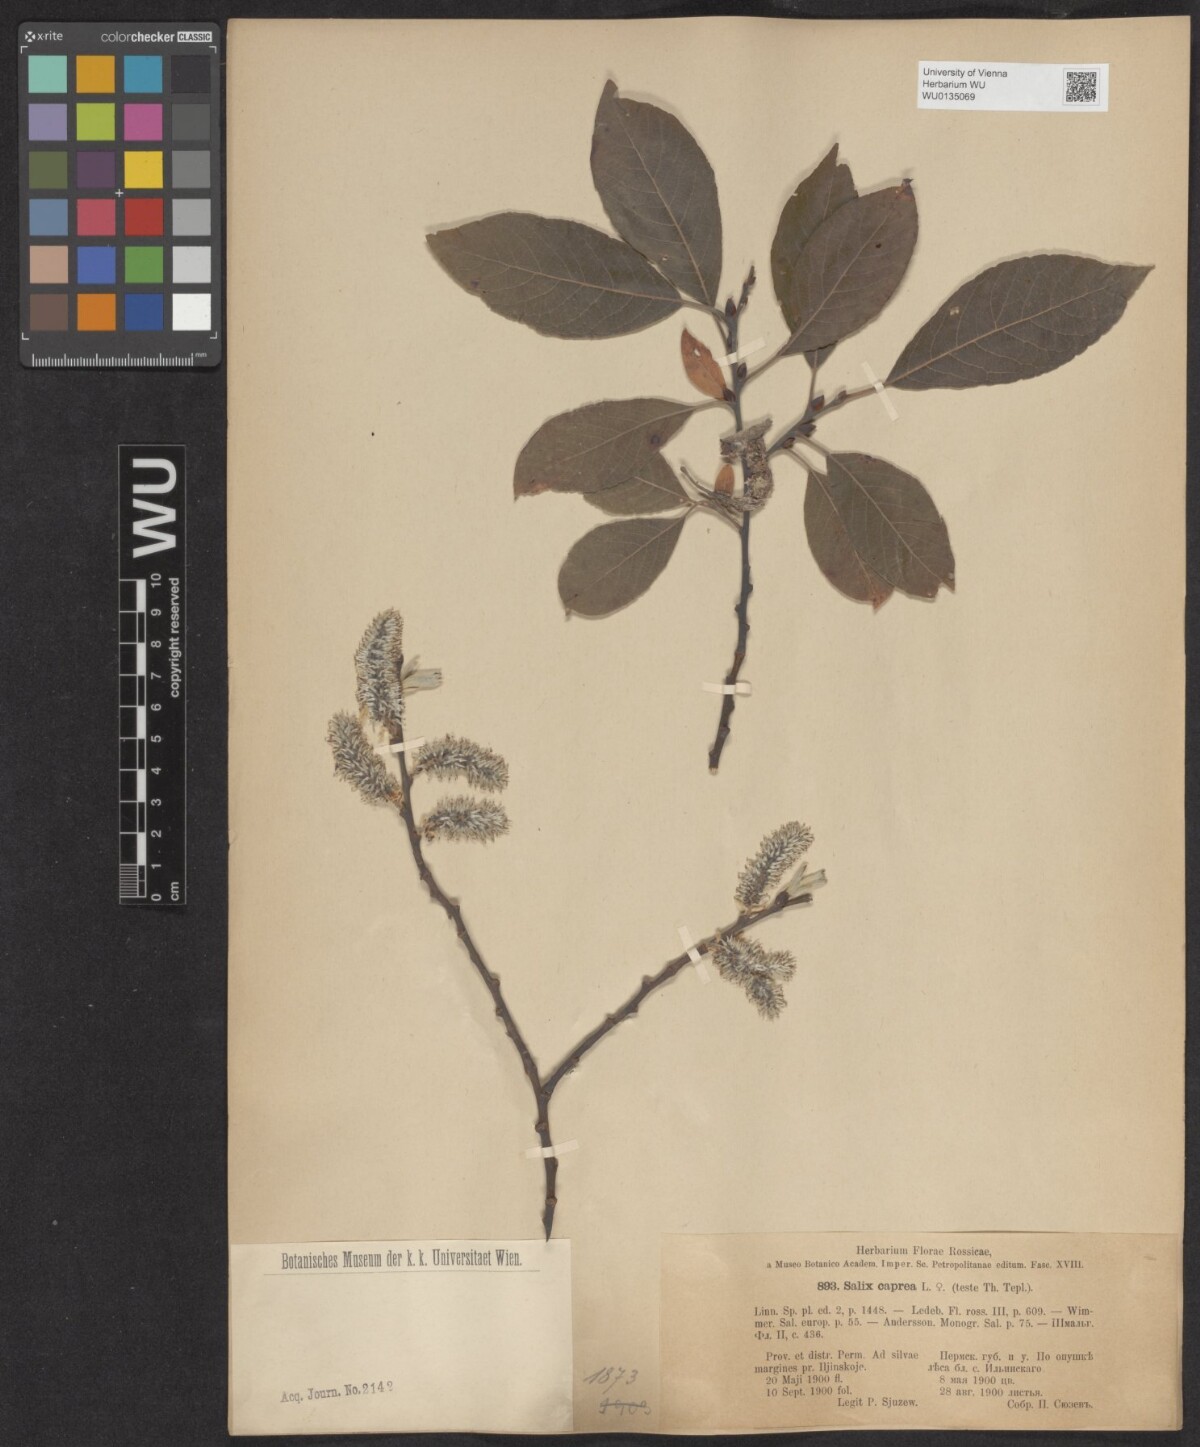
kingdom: Plantae
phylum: Tracheophyta
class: Magnoliopsida
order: Malpighiales
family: Salicaceae
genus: Salix
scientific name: Salix caprea
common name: Goat willow
